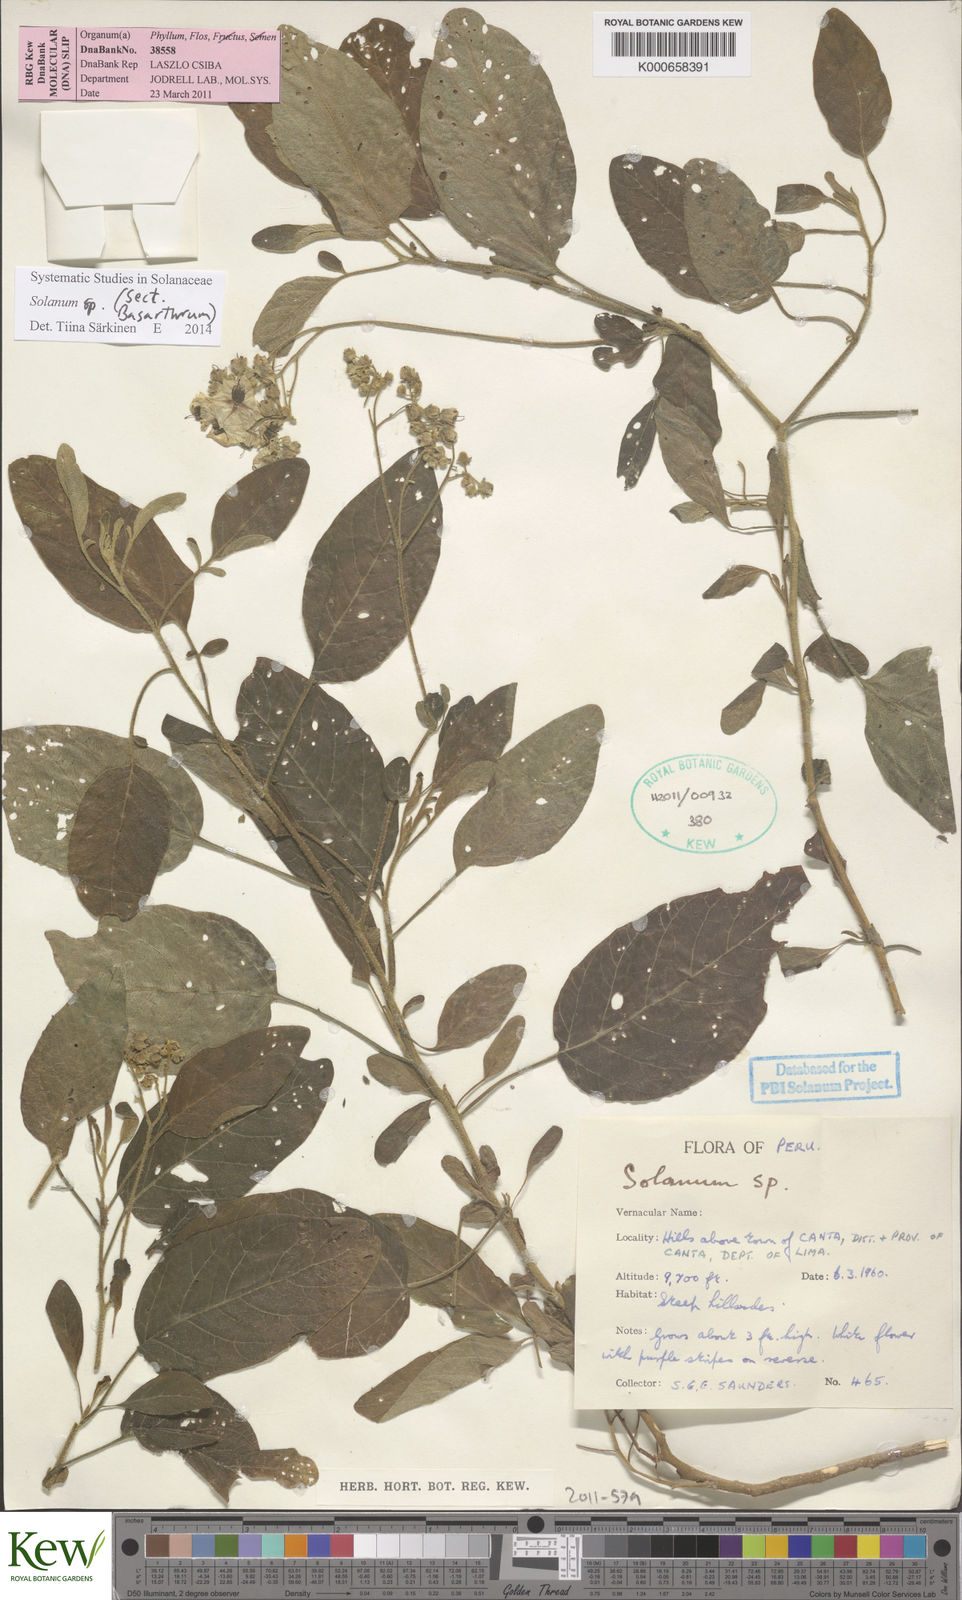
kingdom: Plantae
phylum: Tracheophyta
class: Magnoliopsida
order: Solanales
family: Solanaceae
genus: Solanum
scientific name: Solanum
